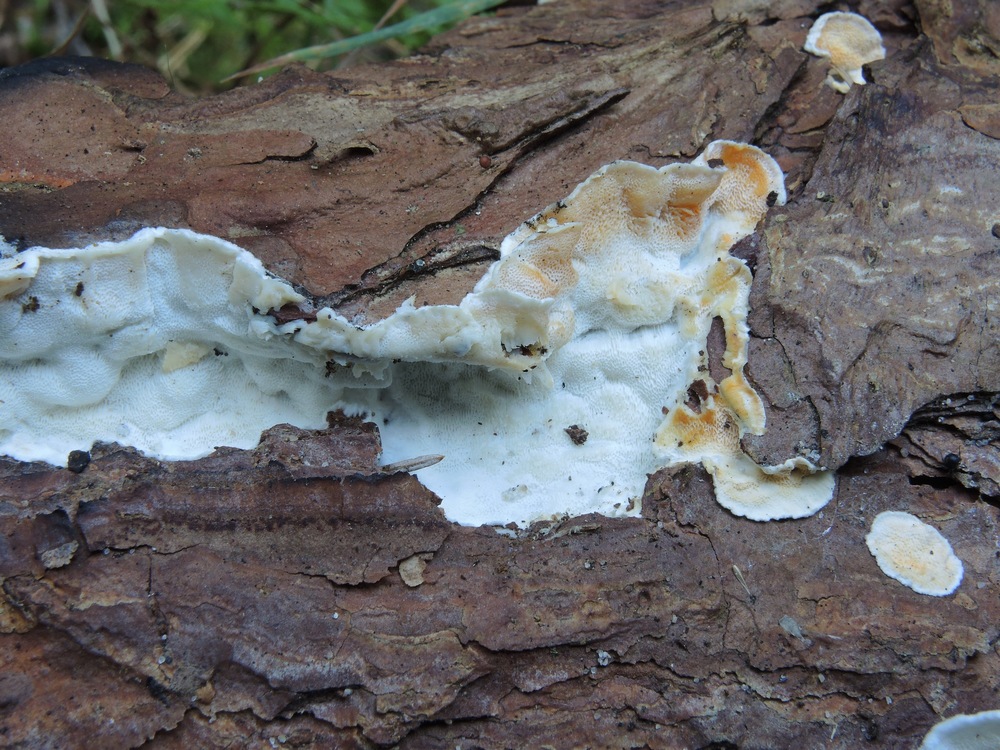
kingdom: Fungi
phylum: Basidiomycota
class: Agaricomycetes
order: Polyporales
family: Incrustoporiaceae
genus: Skeletocutis
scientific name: Skeletocutis amorpha
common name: orange krystalporesvamp
